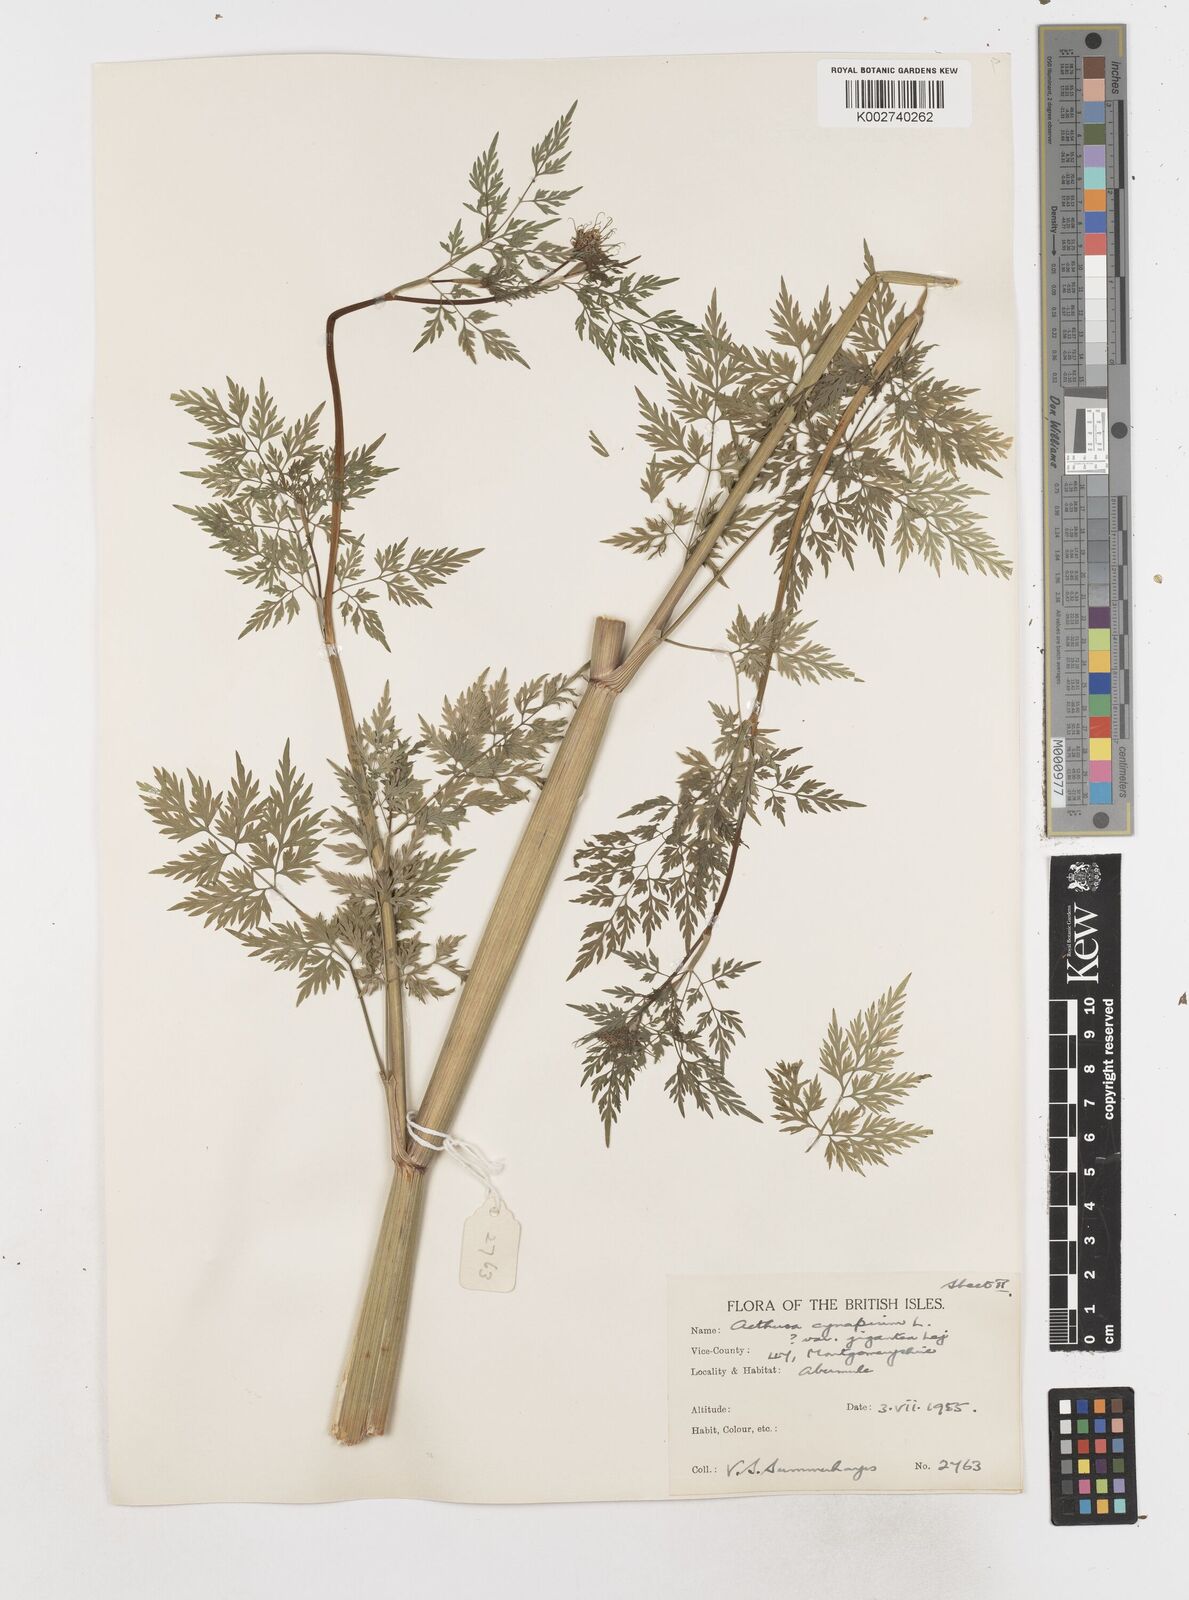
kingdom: Plantae
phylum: Tracheophyta
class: Magnoliopsida
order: Apiales
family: Apiaceae
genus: Aethusa
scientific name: Aethusa cynapium
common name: Fool's parsley
